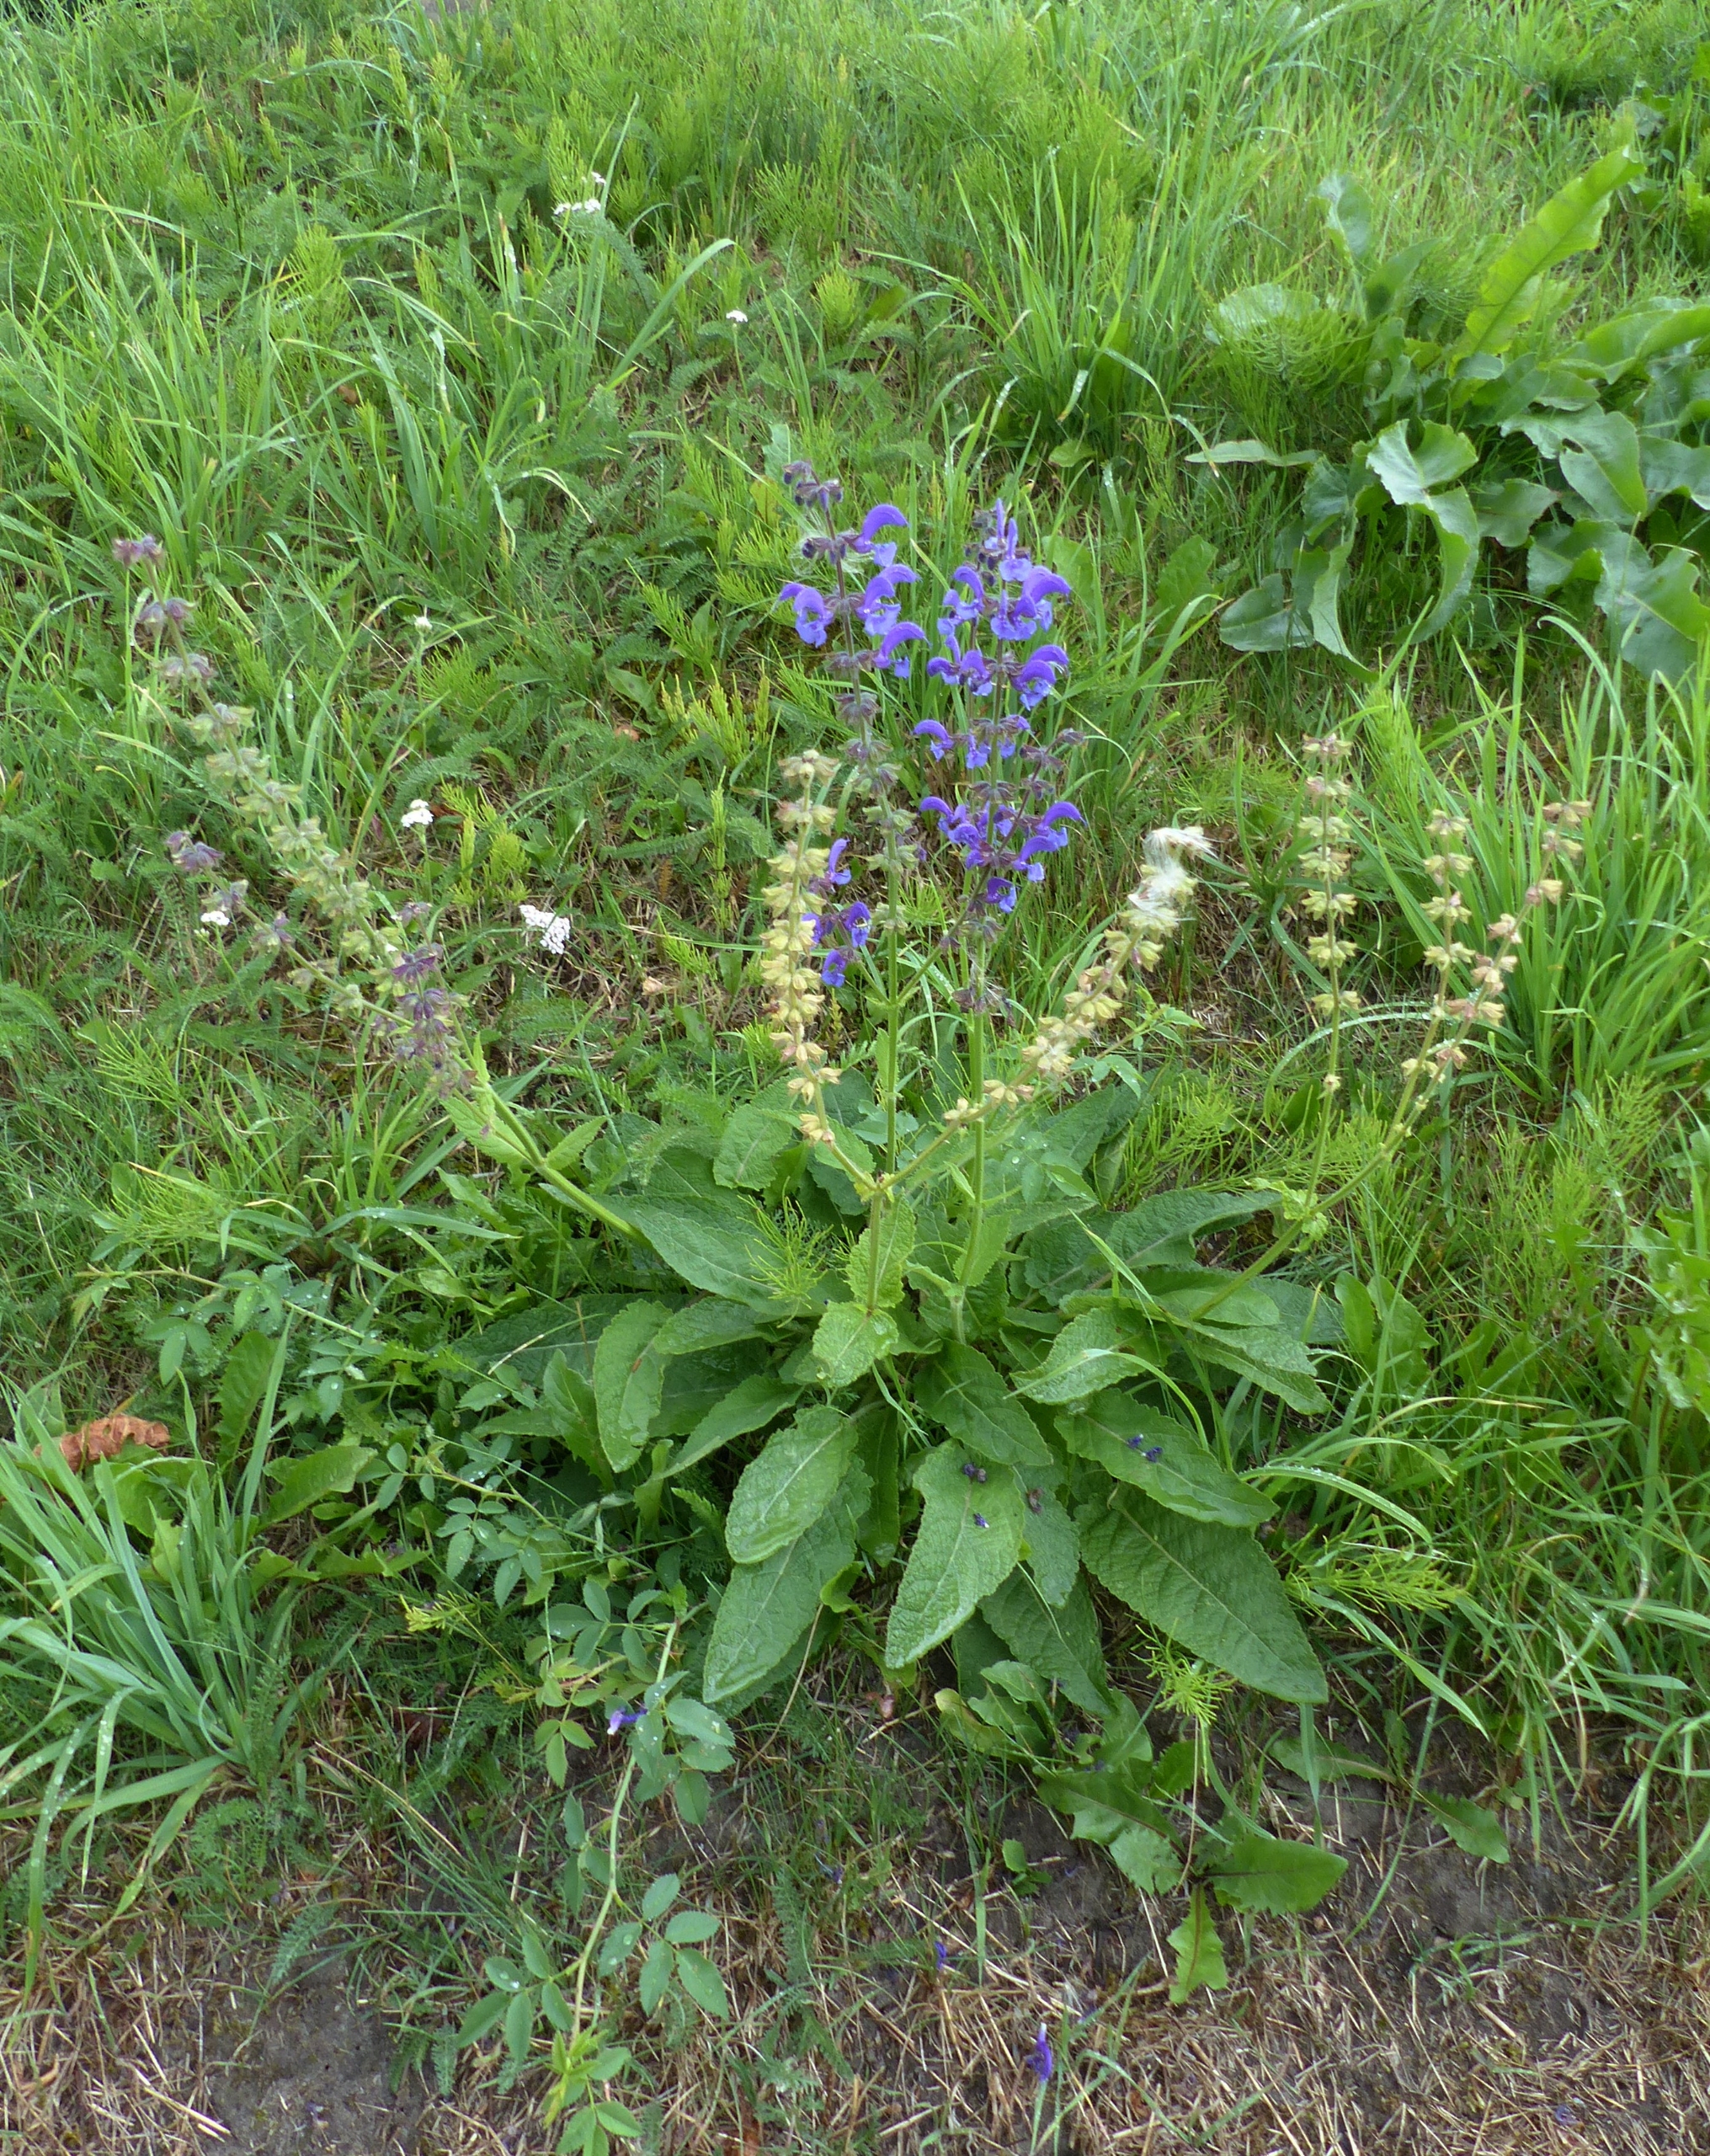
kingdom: Plantae
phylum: Tracheophyta
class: Magnoliopsida
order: Lamiales
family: Lamiaceae
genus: Salvia
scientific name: Salvia pratensis
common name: Eng-salvie
